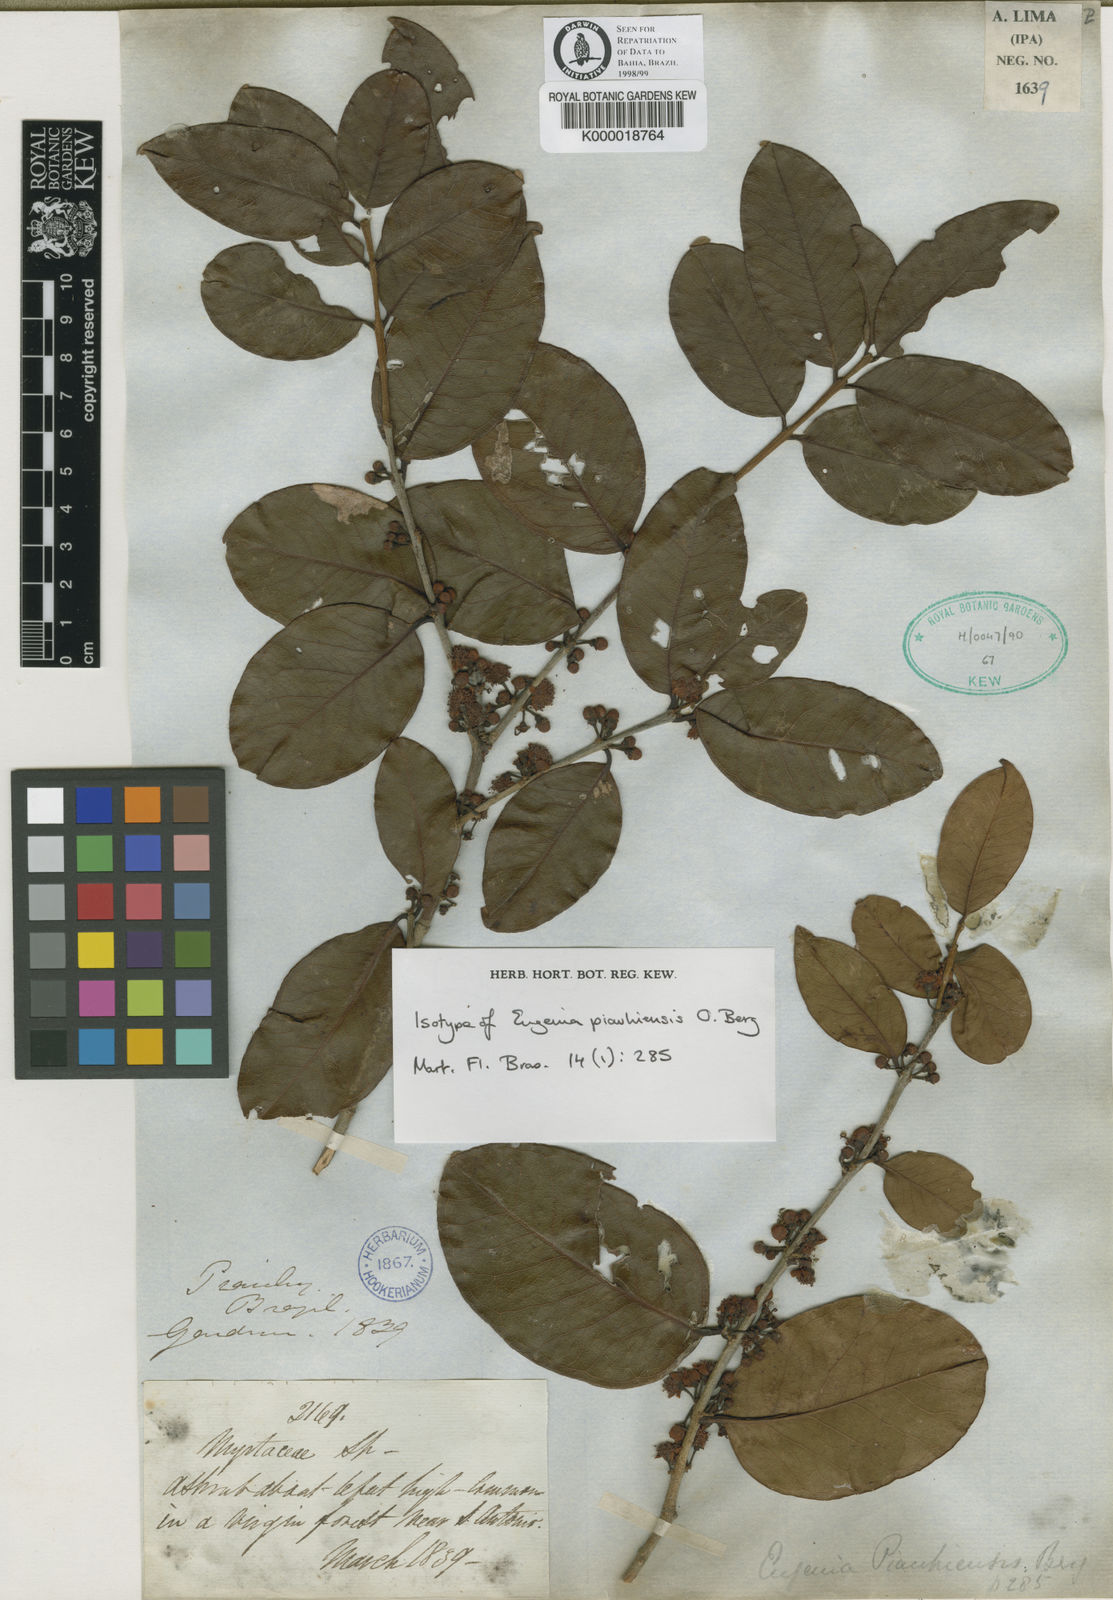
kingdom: Plantae
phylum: Tracheophyta
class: Magnoliopsida
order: Myrtales
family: Myrtaceae
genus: Eugenia
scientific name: Eugenia
